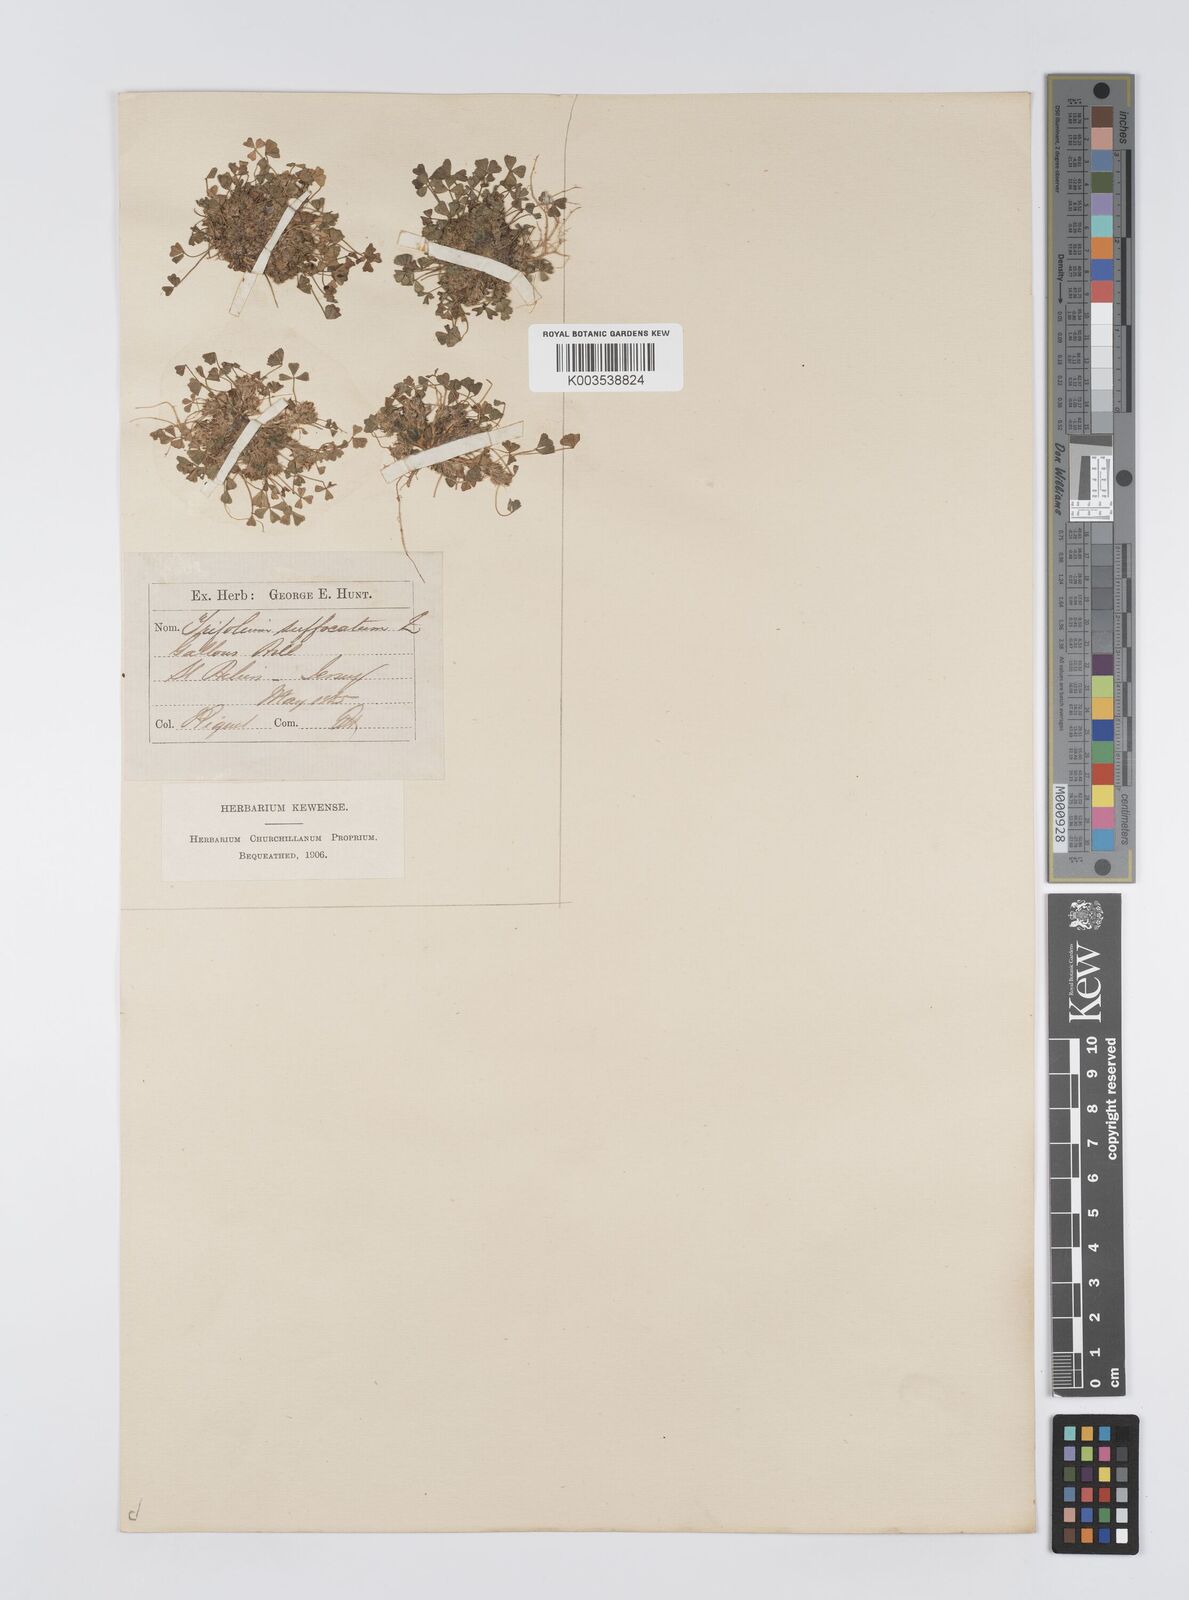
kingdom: Plantae
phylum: Tracheophyta
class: Magnoliopsida
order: Fabales
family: Fabaceae
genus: Trifolium
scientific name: Trifolium suffocatum
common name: Suffocated clover
